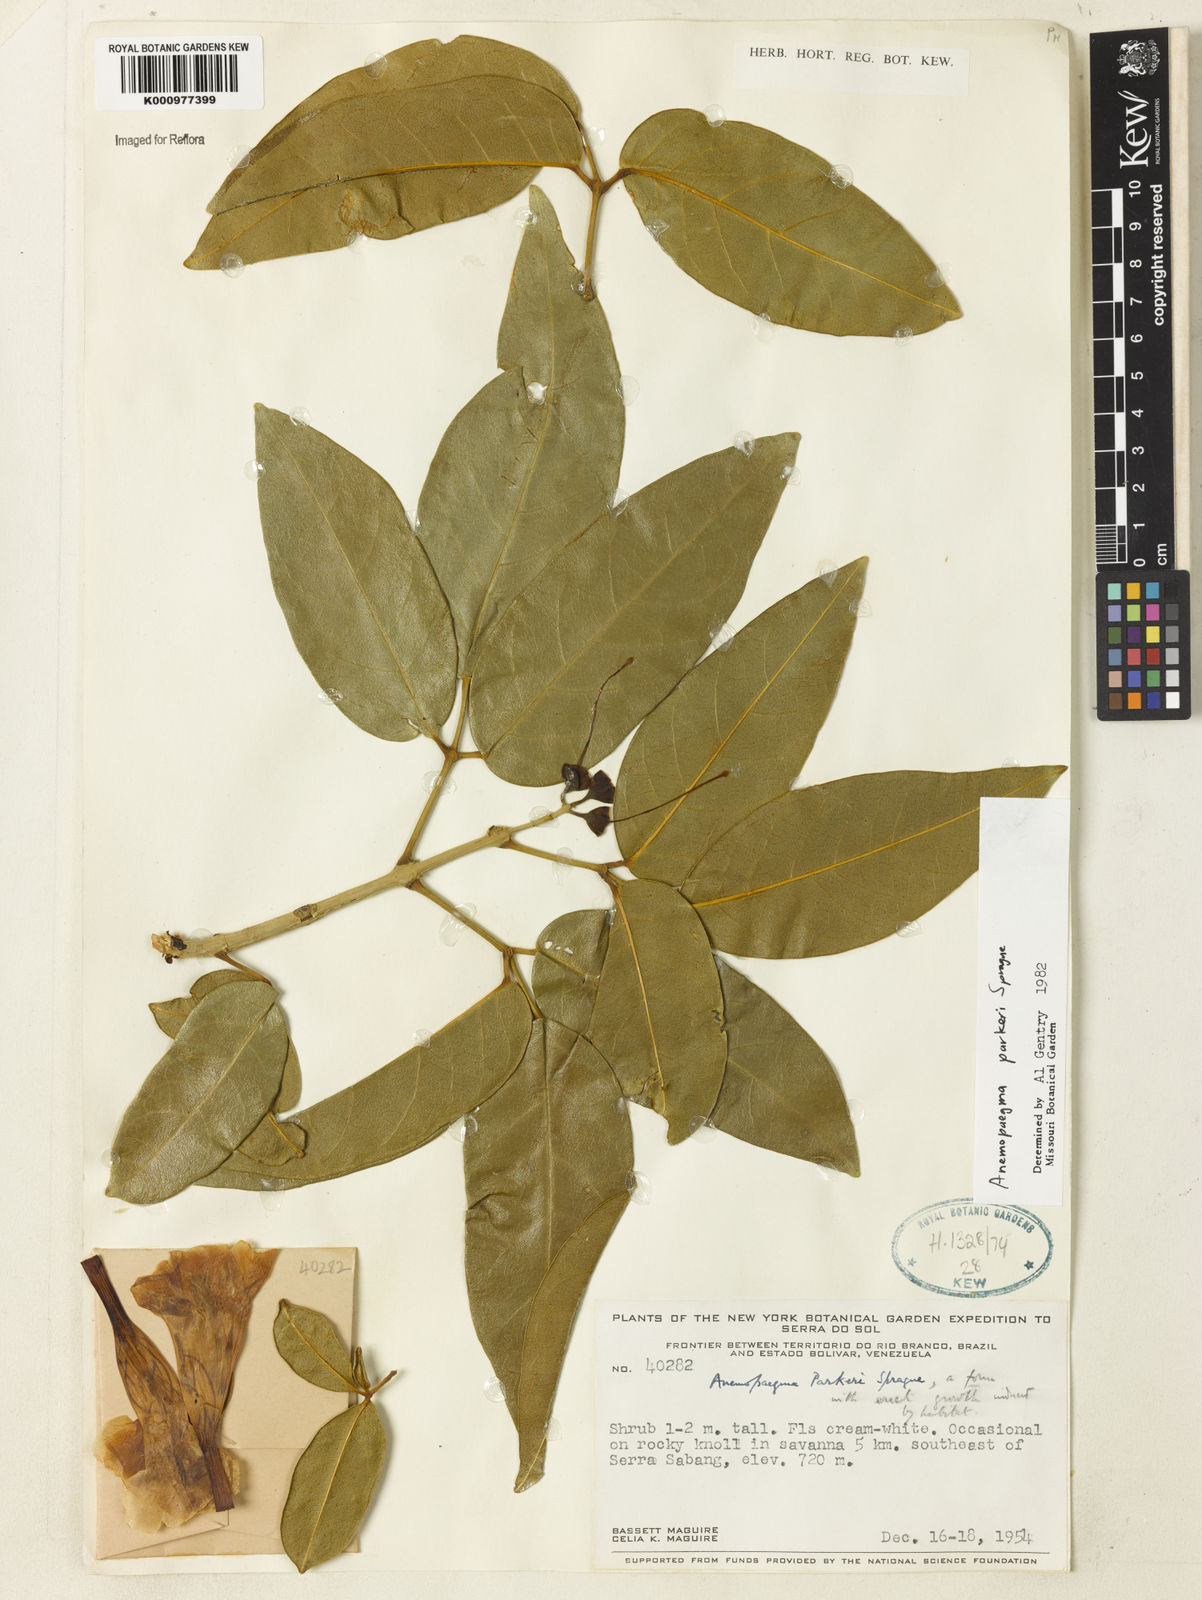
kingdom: Plantae
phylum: Tracheophyta
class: Magnoliopsida
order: Lamiales
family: Bignoniaceae
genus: Anemopaegma
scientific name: Anemopaegma parkeri
